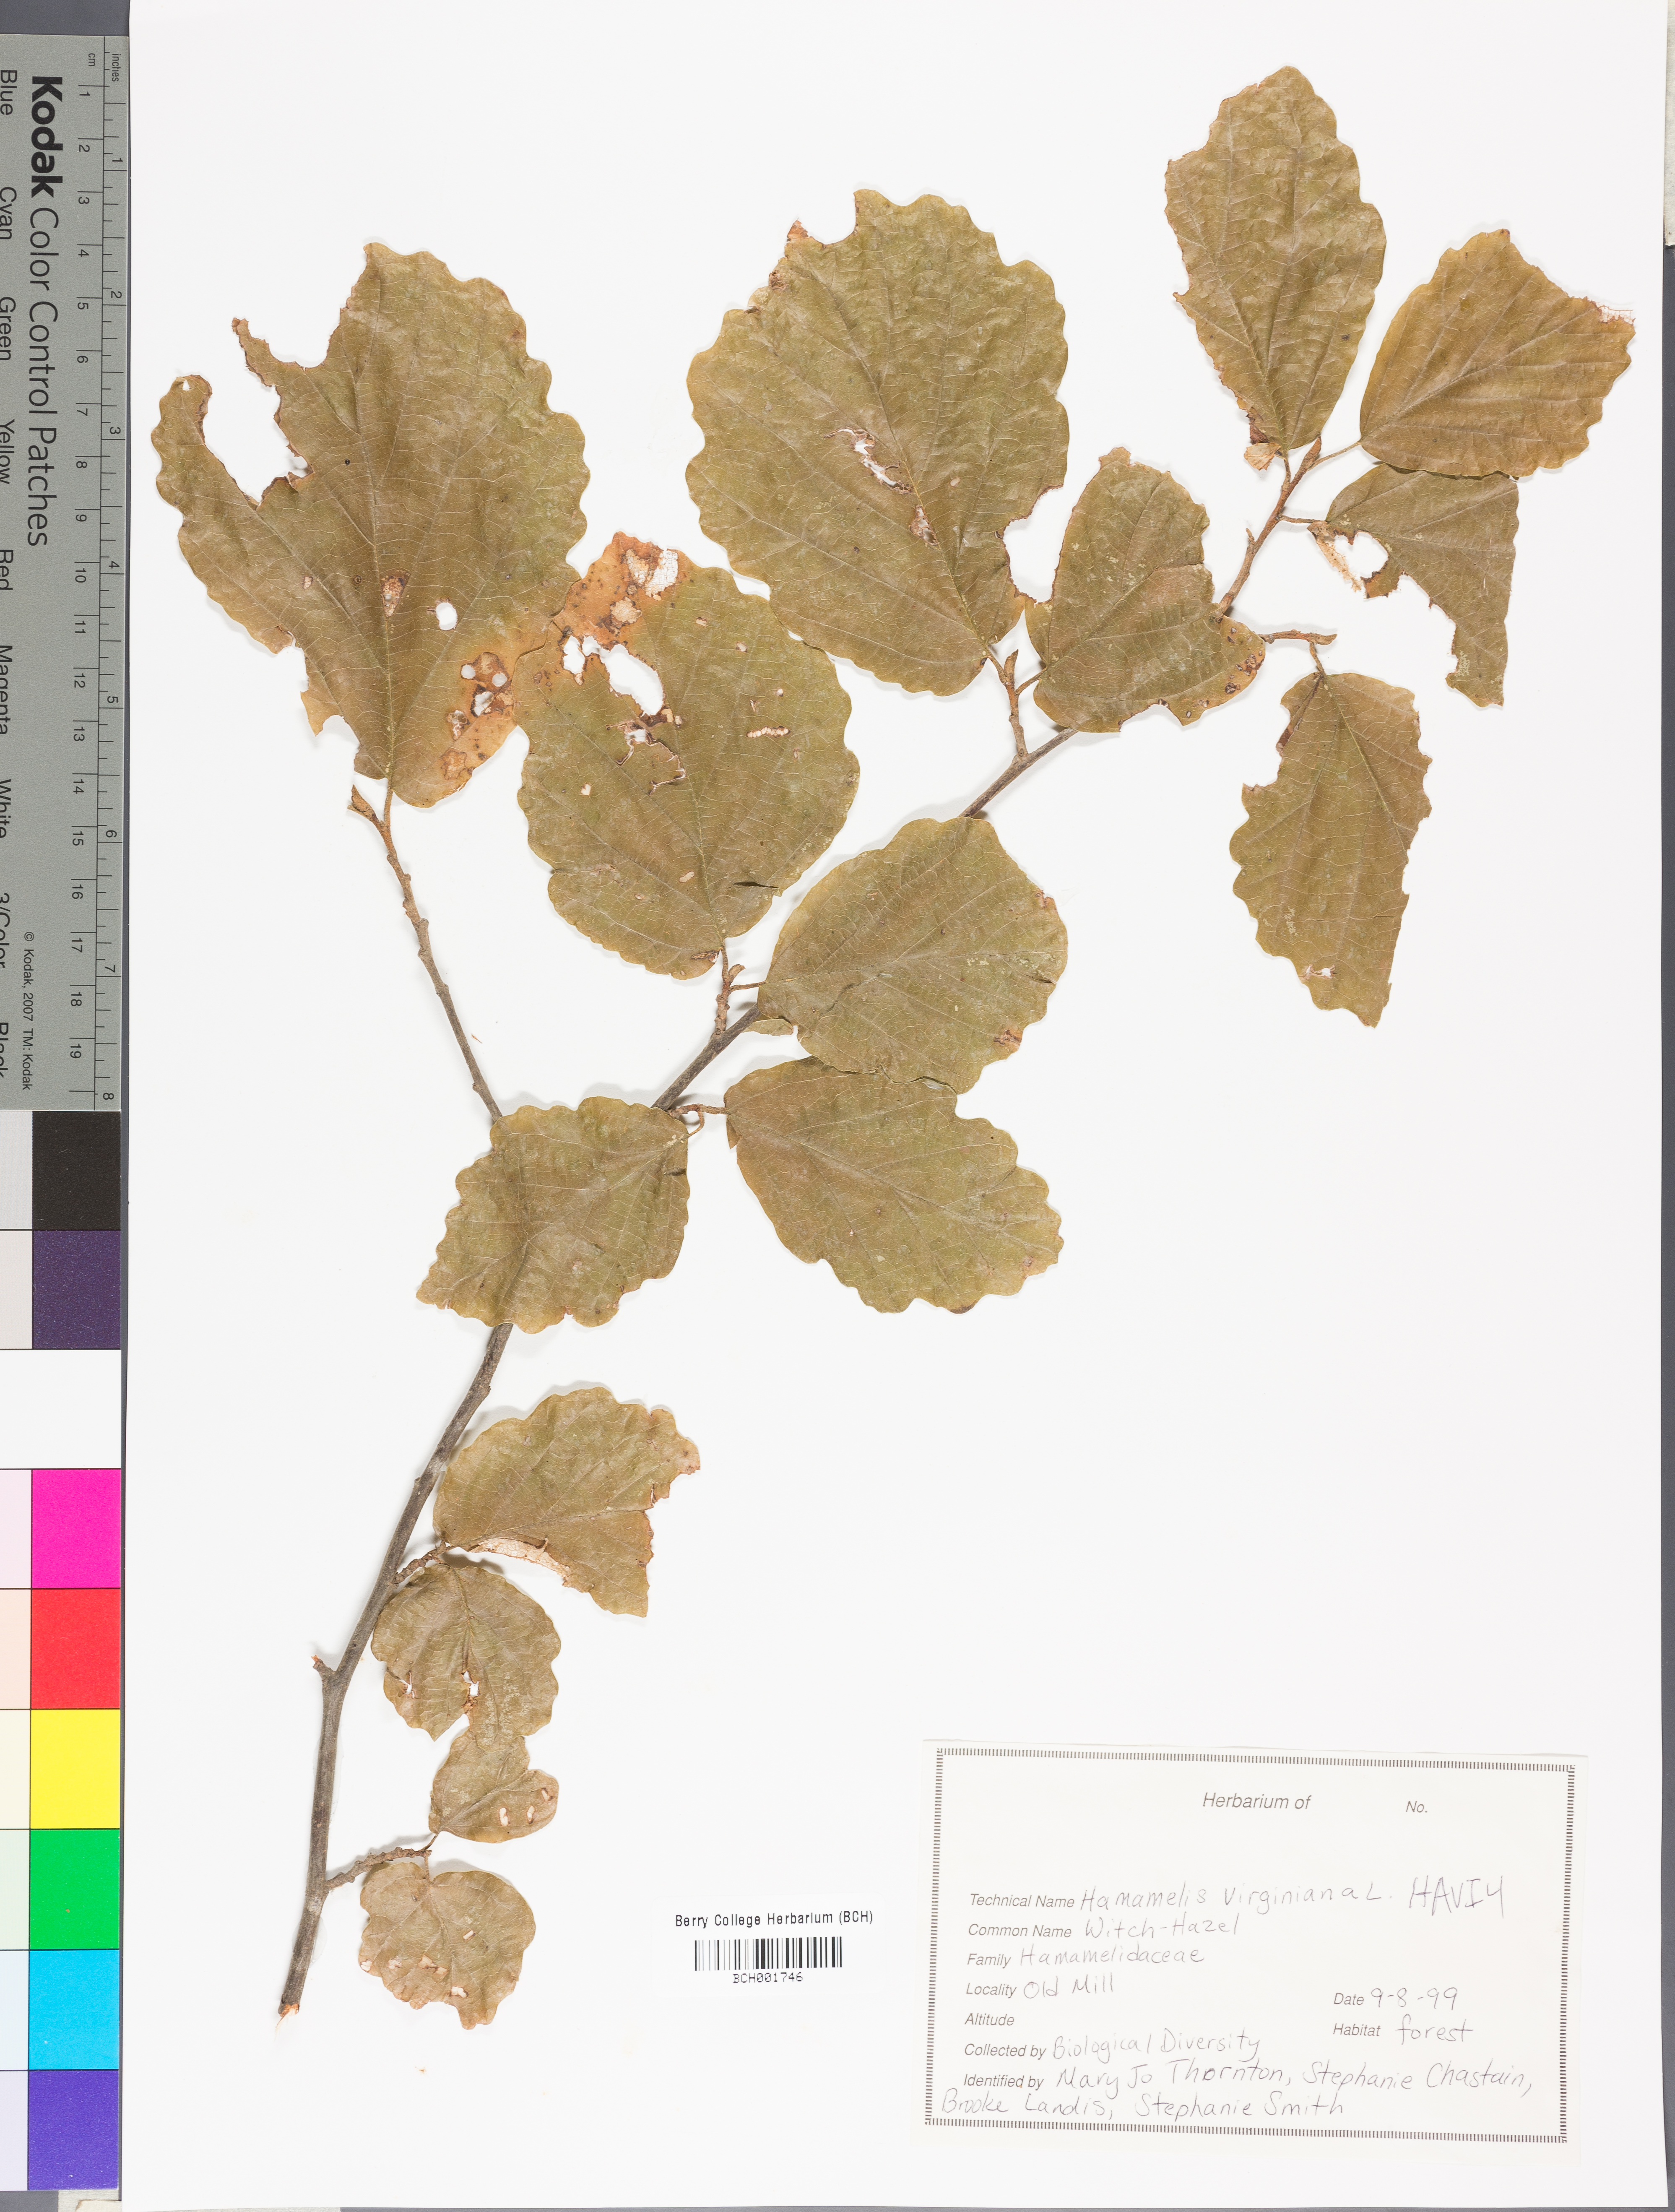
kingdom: Plantae
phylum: Tracheophyta
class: Magnoliopsida
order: Saxifragales
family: Hamamelidaceae
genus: Hamamelis
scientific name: Hamamelis virginiana
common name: Witch-hazel
